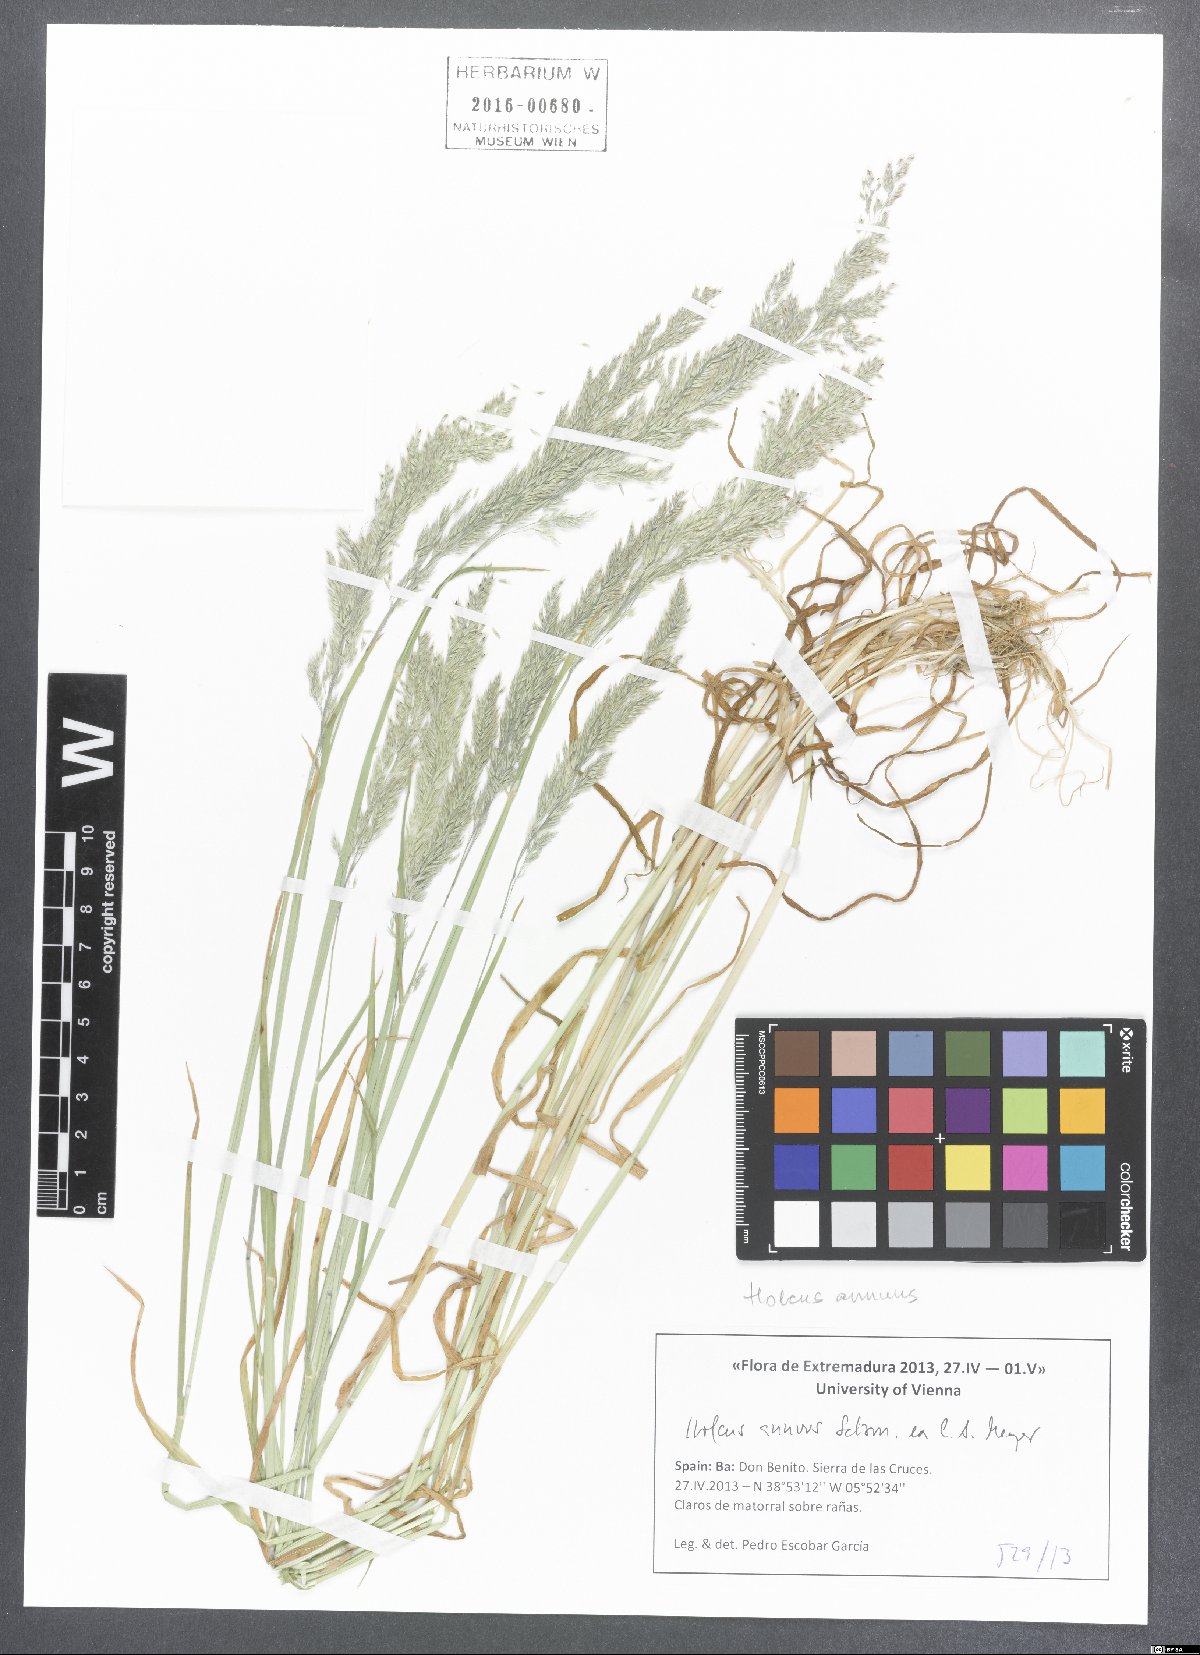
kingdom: Plantae
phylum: Tracheophyta
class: Liliopsida
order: Poales
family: Poaceae
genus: Holcus
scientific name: Holcus annuus
